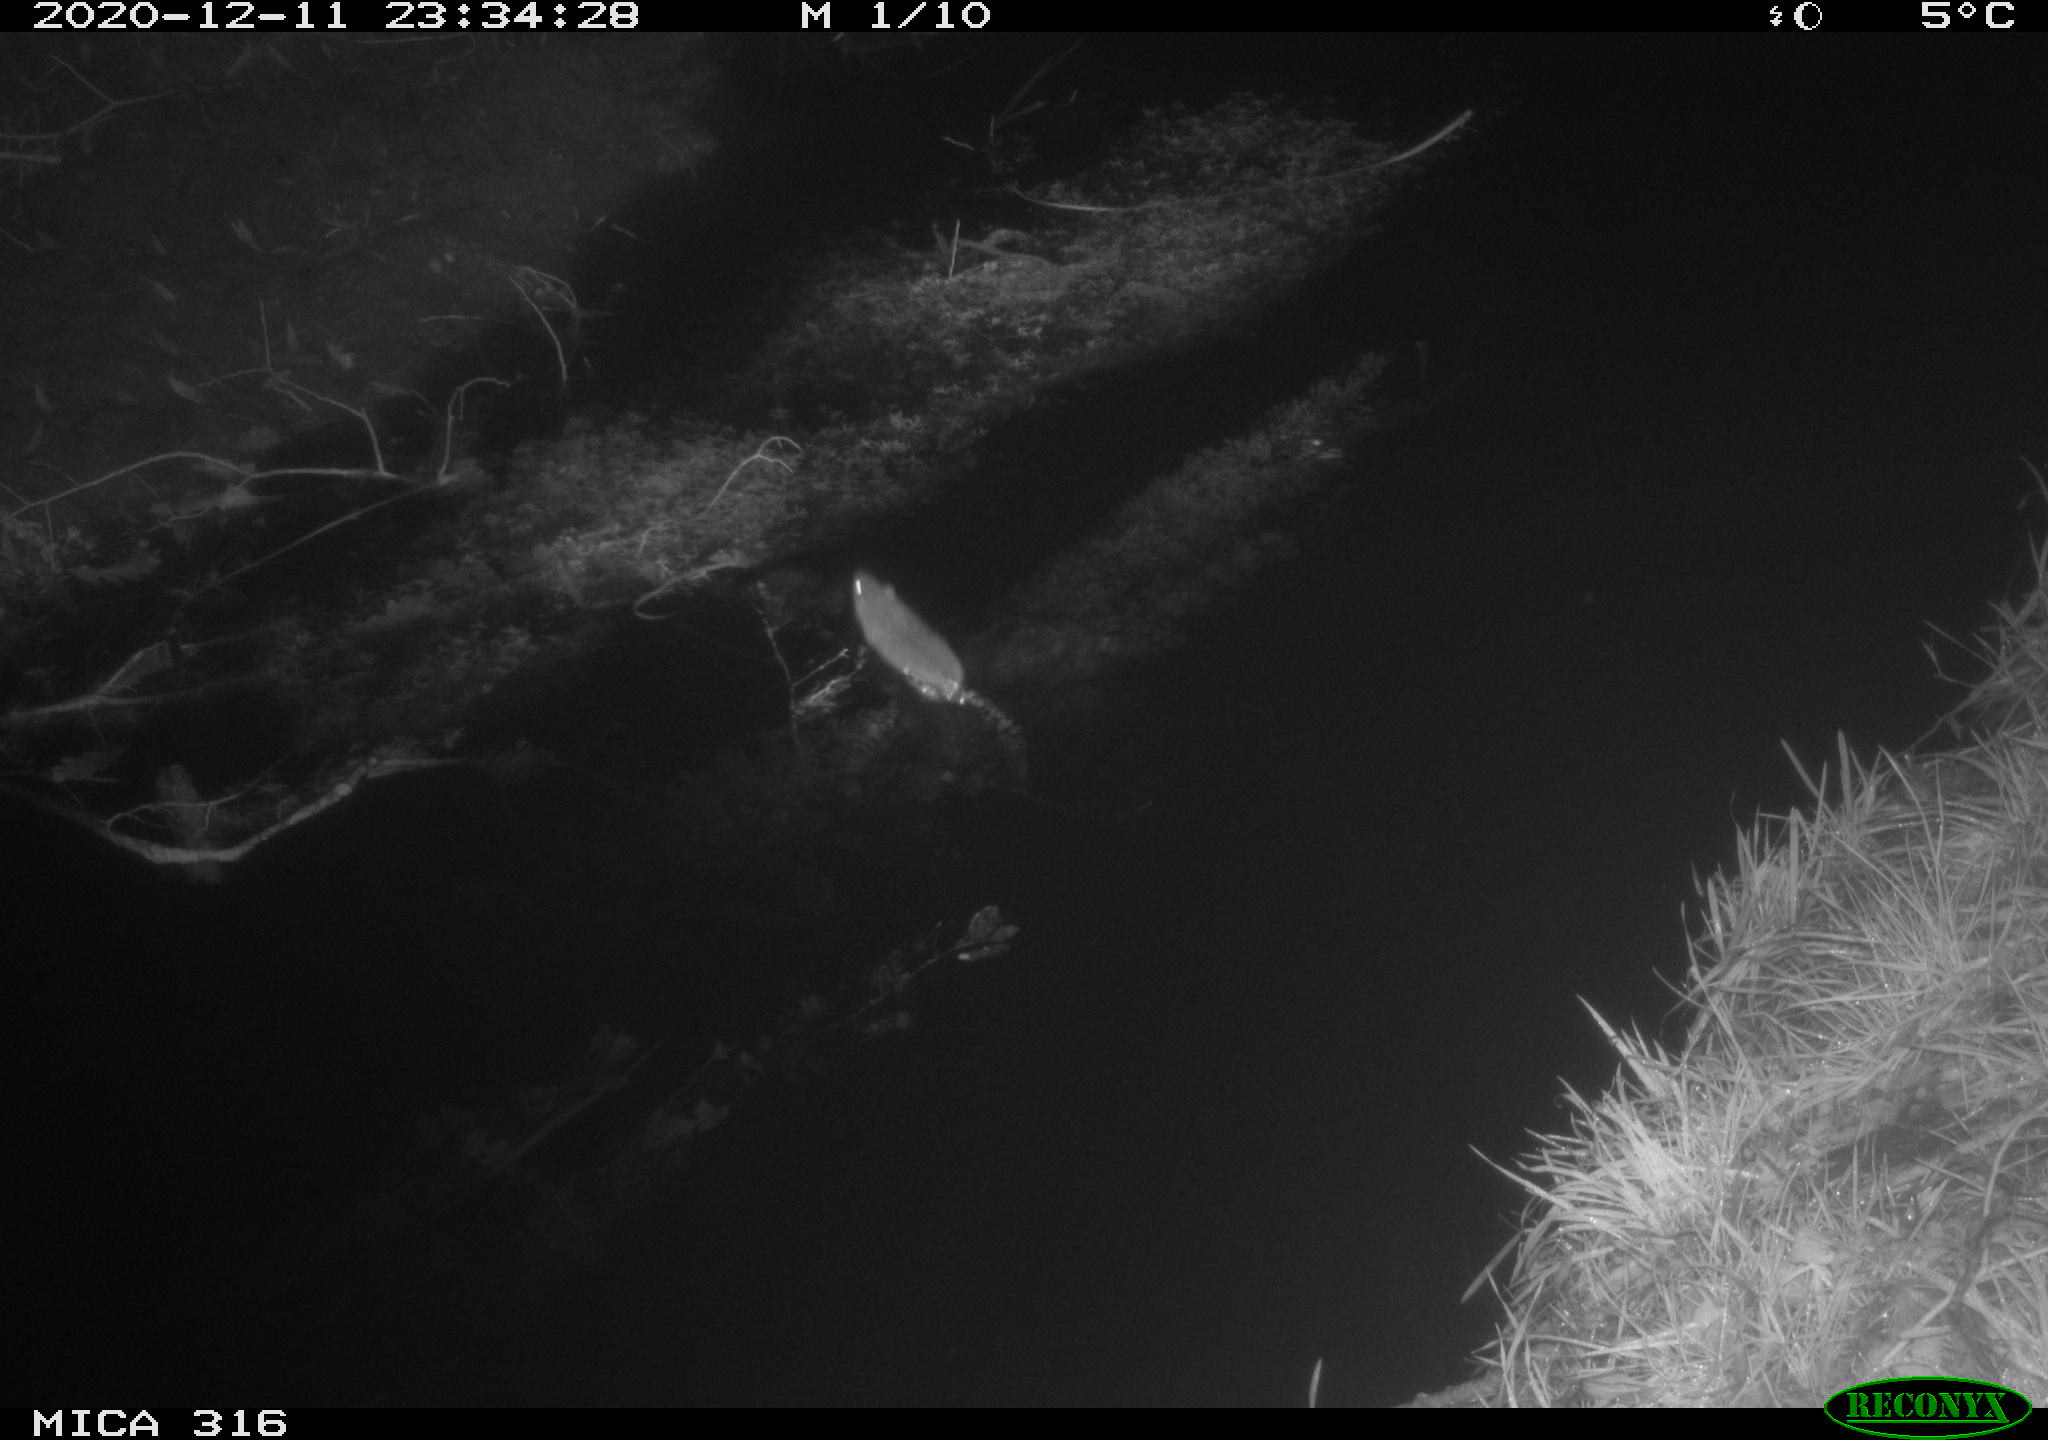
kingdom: Animalia
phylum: Chordata
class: Mammalia
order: Rodentia
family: Muridae
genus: Rattus
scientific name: Rattus norvegicus
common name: Brown rat
